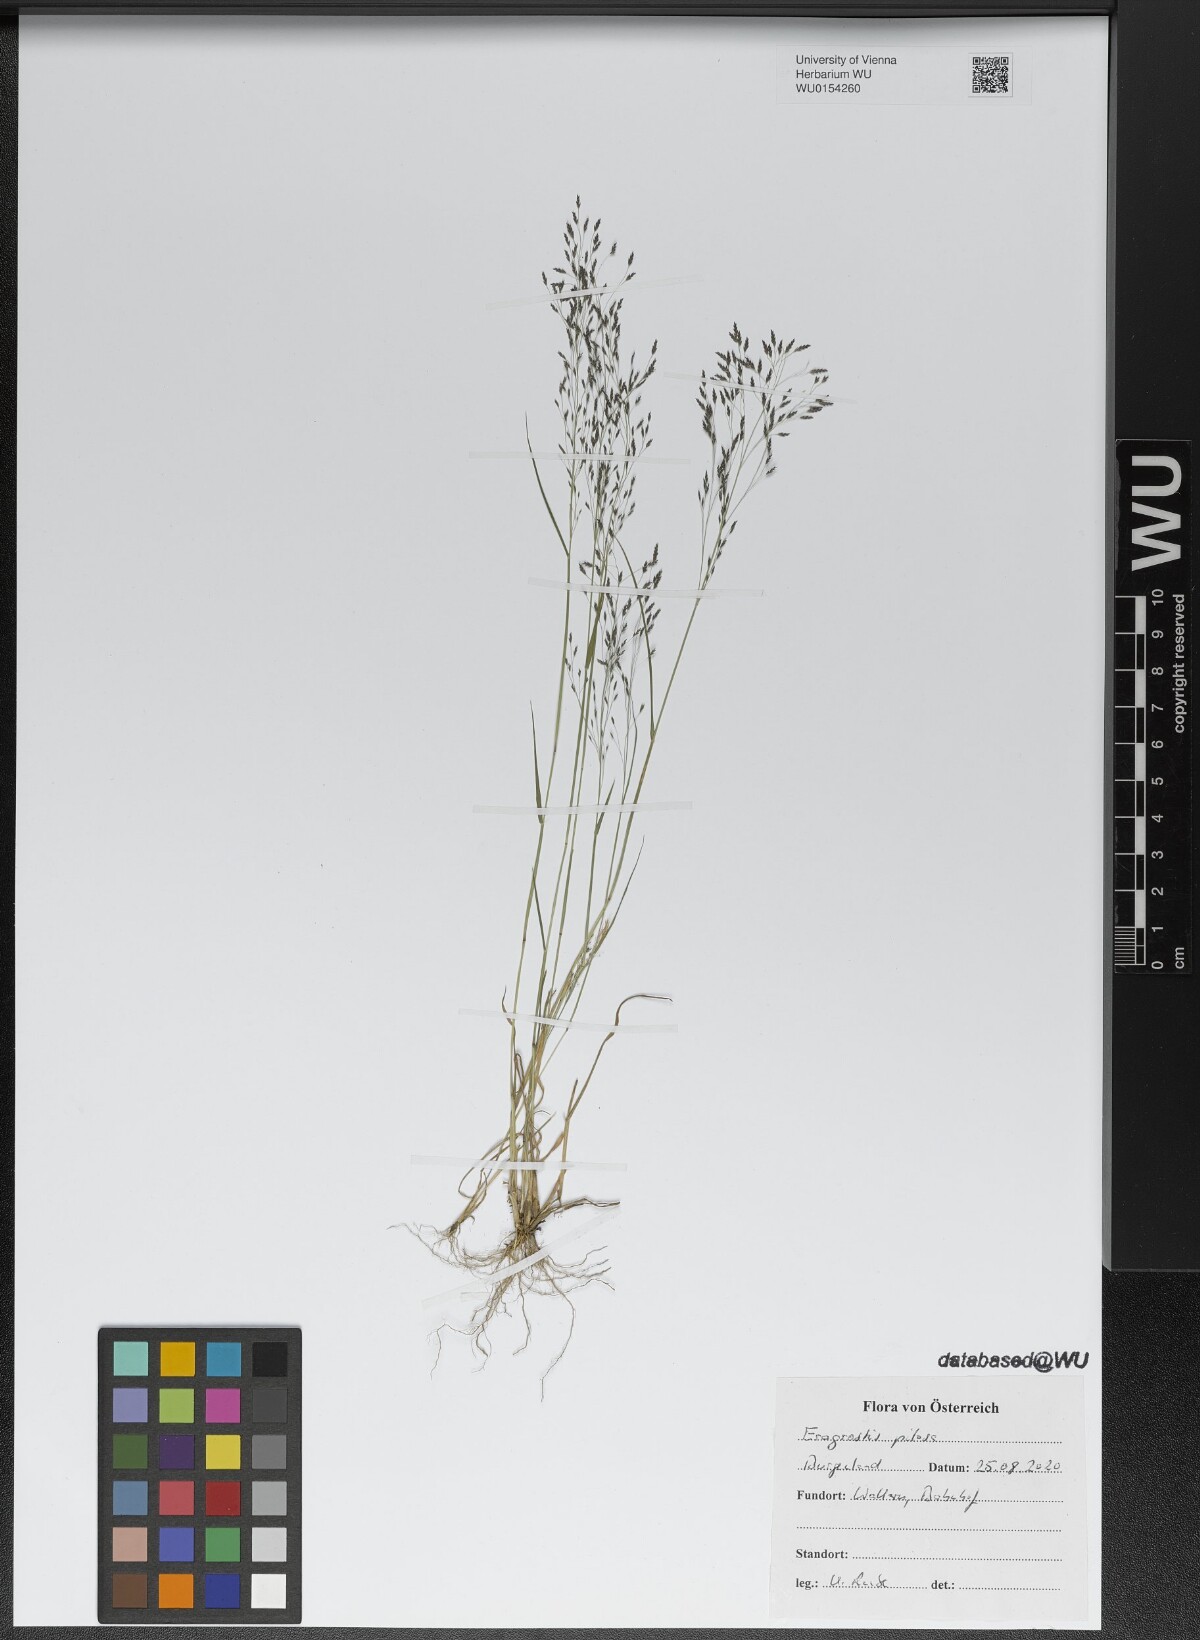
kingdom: Plantae
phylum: Tracheophyta
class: Liliopsida
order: Poales
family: Poaceae
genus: Eragrostis
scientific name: Eragrostis pilosa
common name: Indian lovegrass
